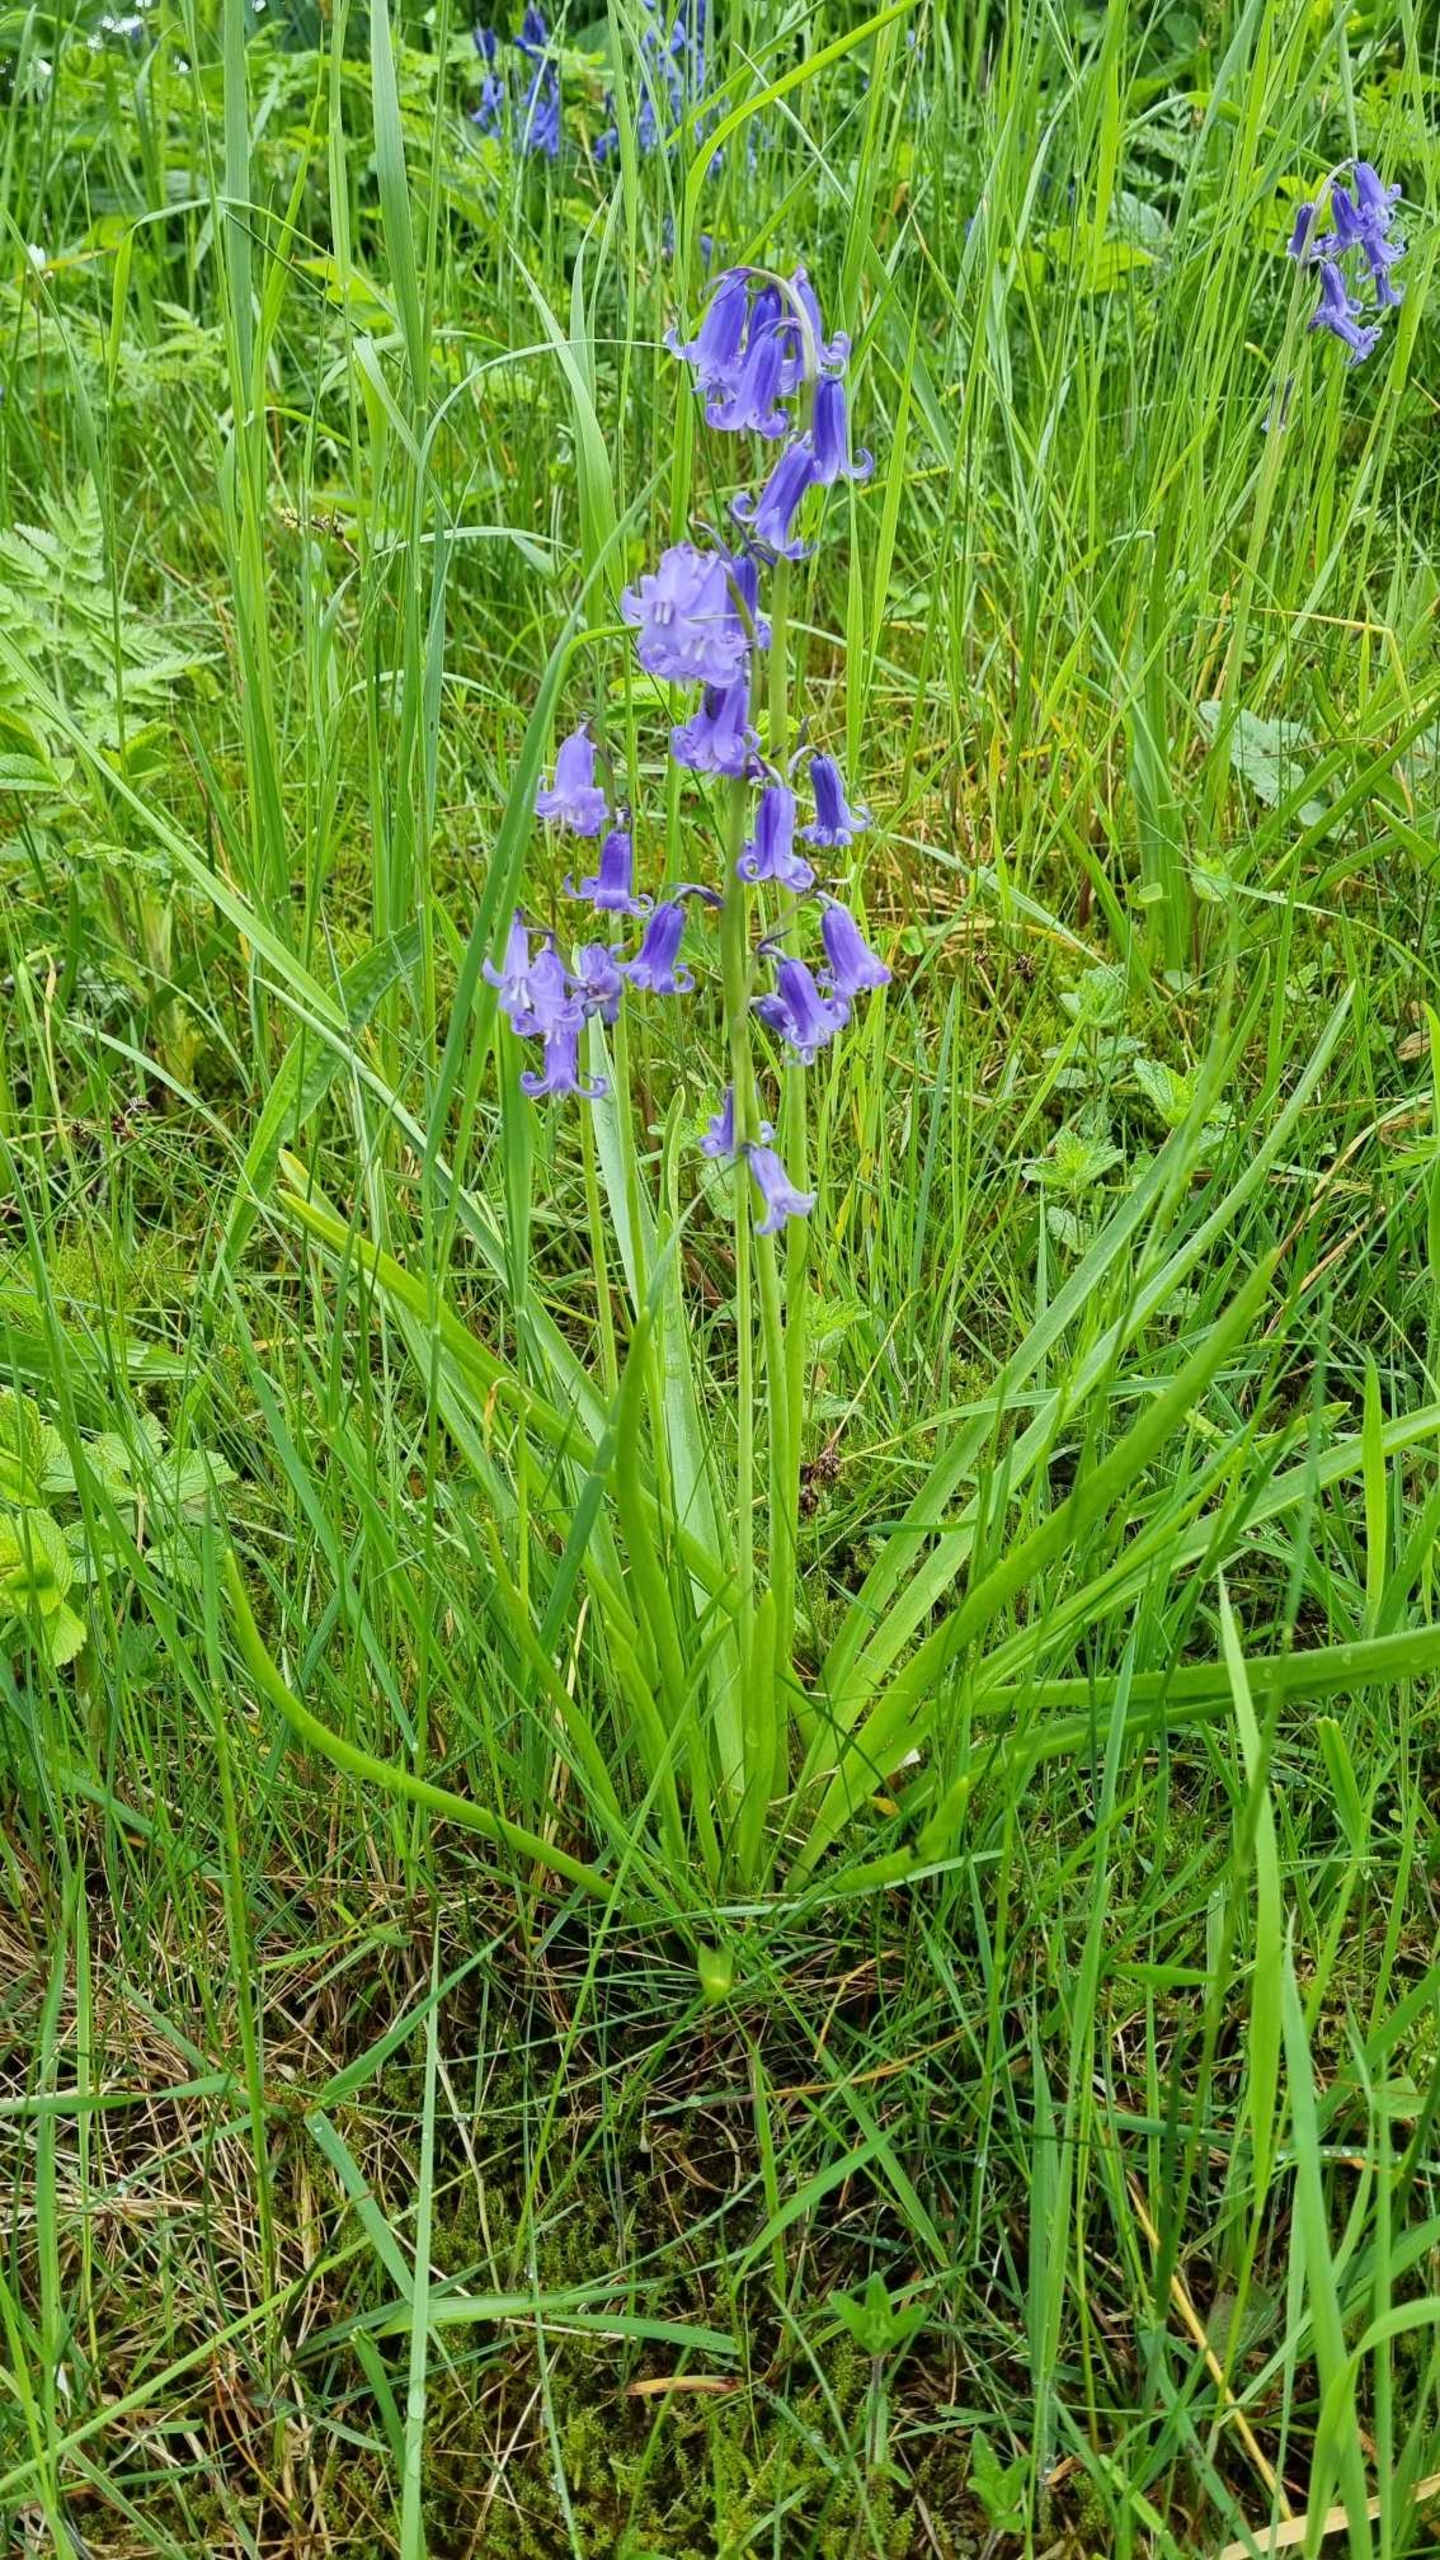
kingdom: Plantae
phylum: Tracheophyta
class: Liliopsida
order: Asparagales
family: Asparagaceae
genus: Hyacinthoides
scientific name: Hyacinthoides massartiana
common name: Hybrid-klokkeskilla
